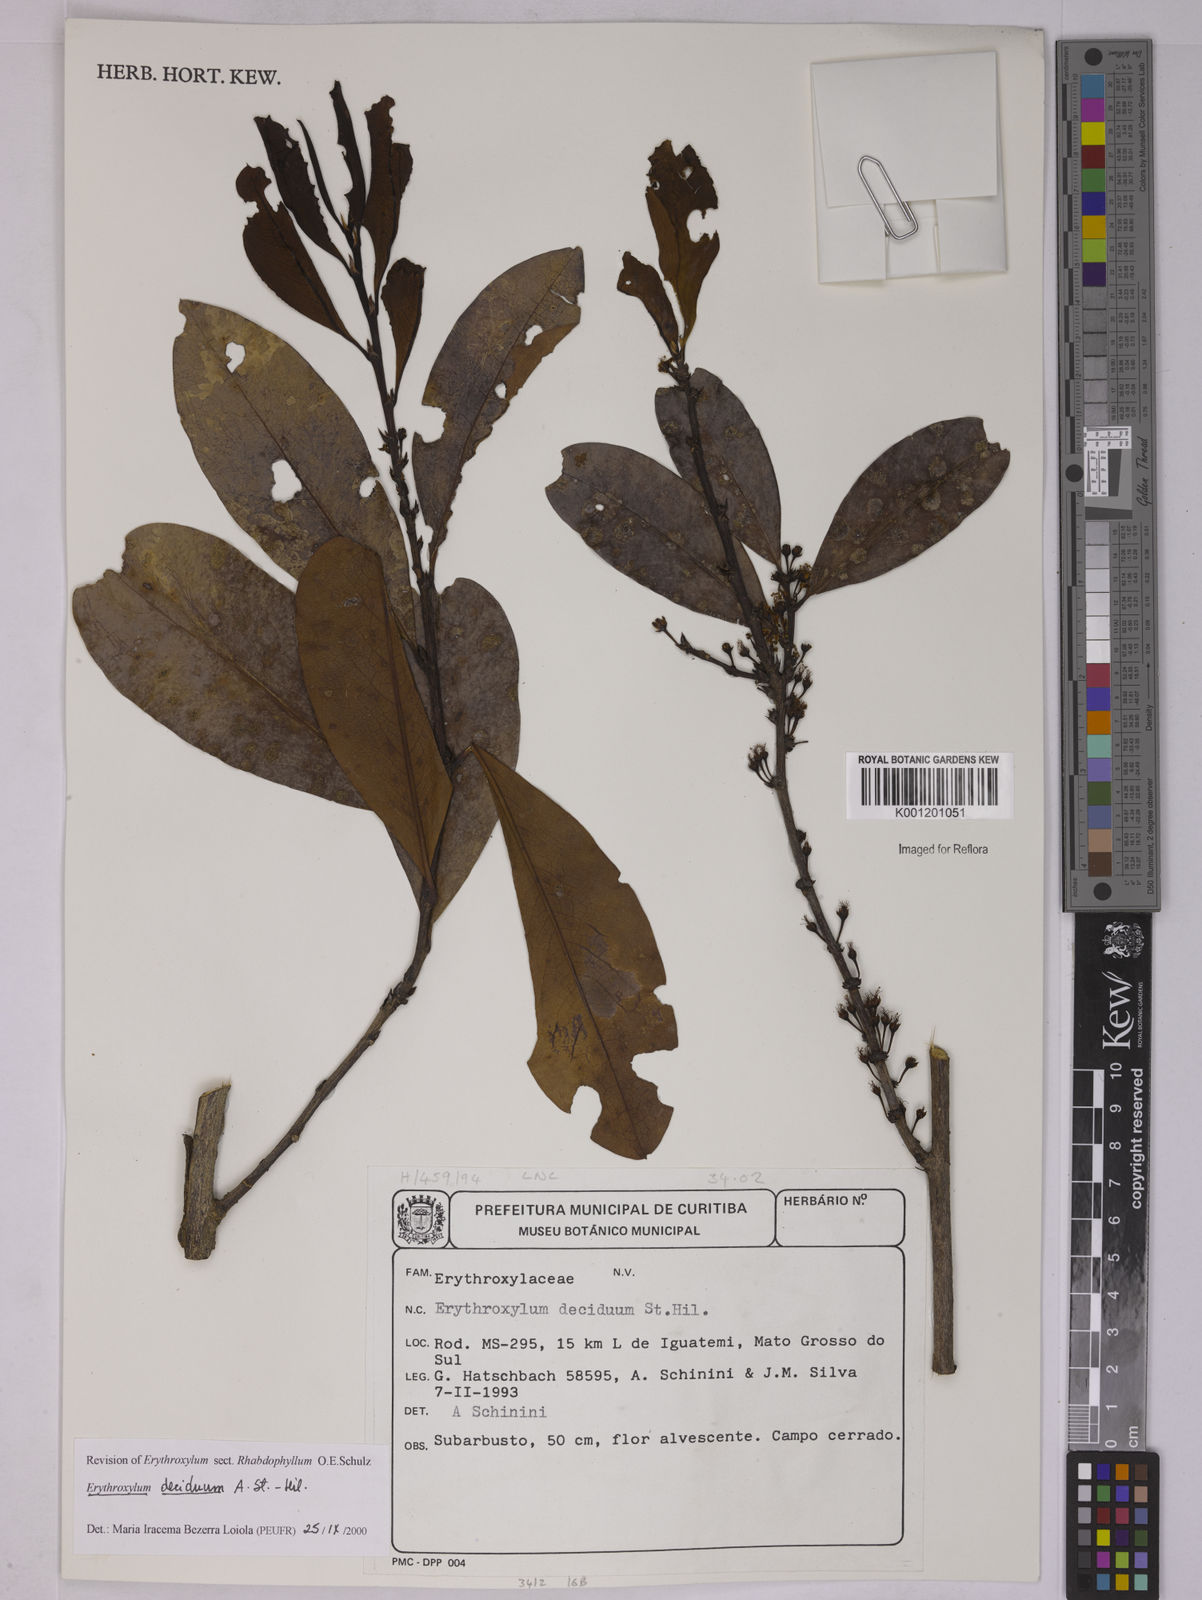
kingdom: Plantae
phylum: Tracheophyta
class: Magnoliopsida
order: Malpighiales
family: Erythroxylaceae
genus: Erythroxylum
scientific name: Erythroxylum deciduum
